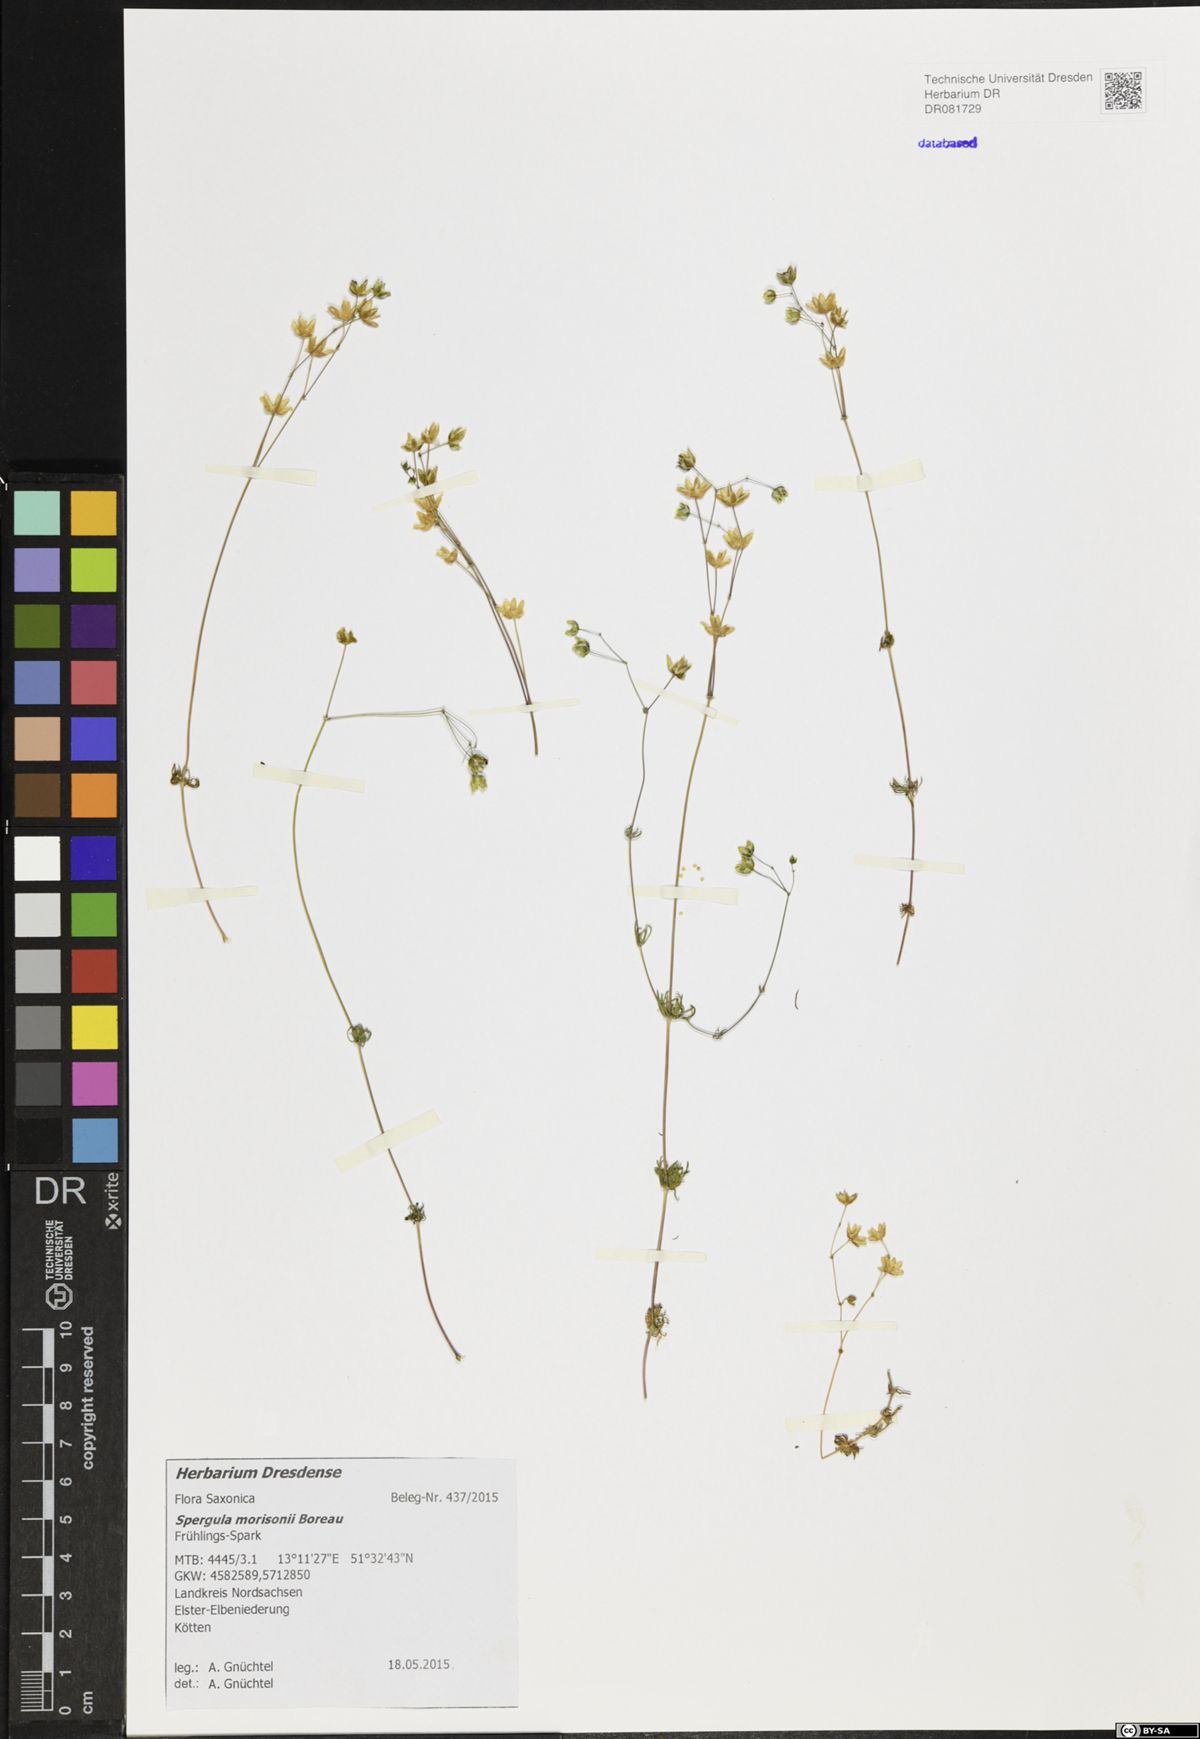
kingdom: Plantae
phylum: Tracheophyta
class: Magnoliopsida
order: Caryophyllales
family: Caryophyllaceae
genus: Spergula
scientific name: Spergula morisonii
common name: Pearlwort spurrey
